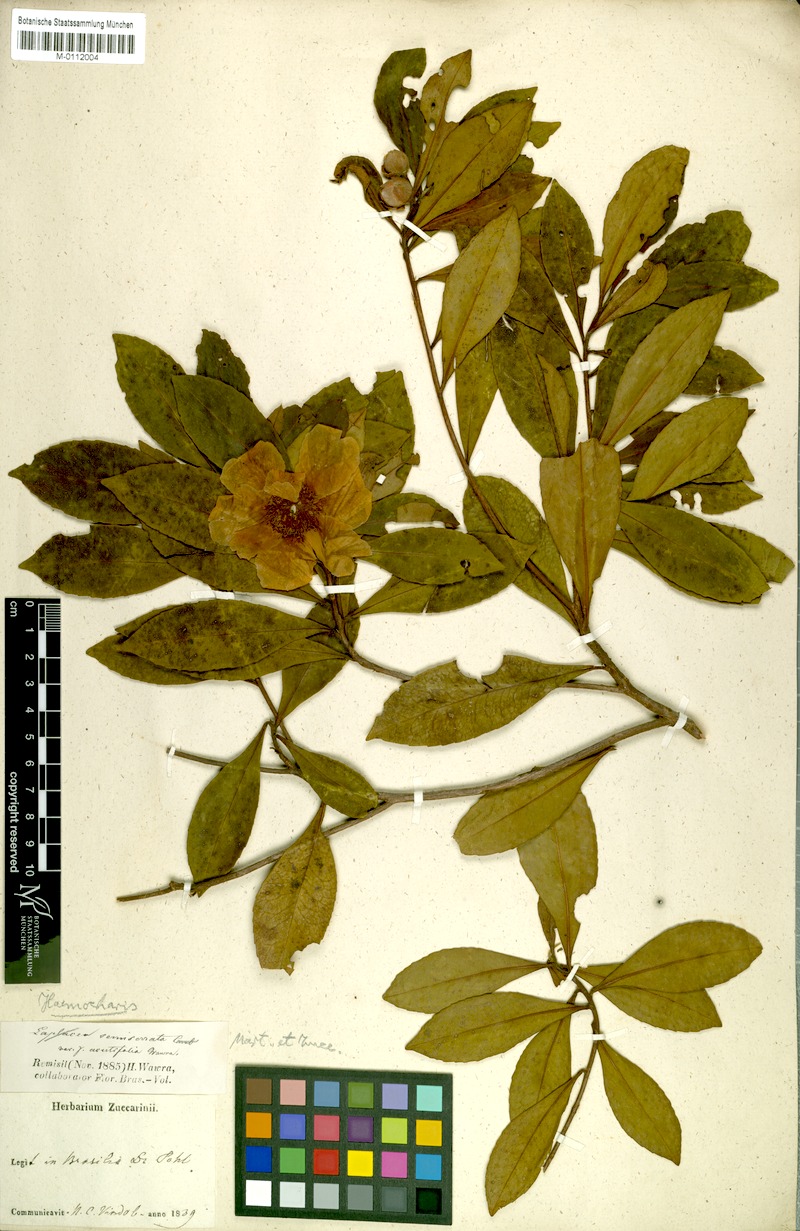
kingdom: Plantae
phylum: Tracheophyta
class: Magnoliopsida
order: Ericales
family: Theaceae
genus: Gordonia
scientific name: Gordonia acutifolia
